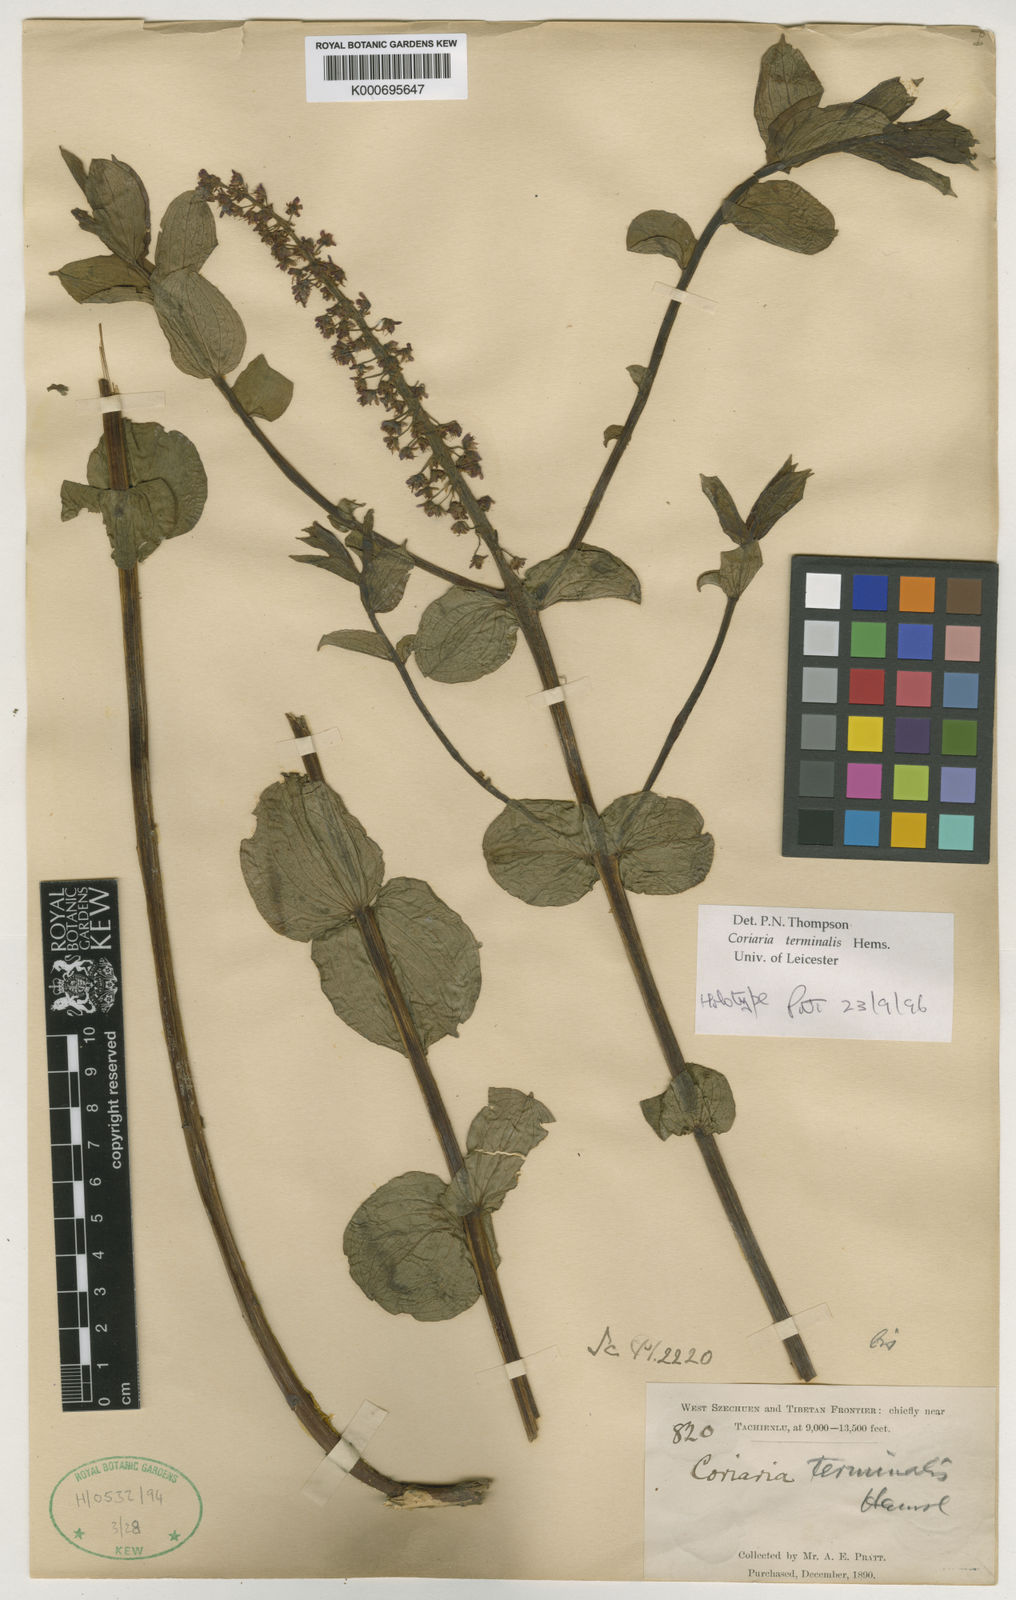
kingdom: Plantae
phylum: Tracheophyta
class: Magnoliopsida
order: Cucurbitales
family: Coriariaceae
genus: Coriaria
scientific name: Coriaria terminalis
